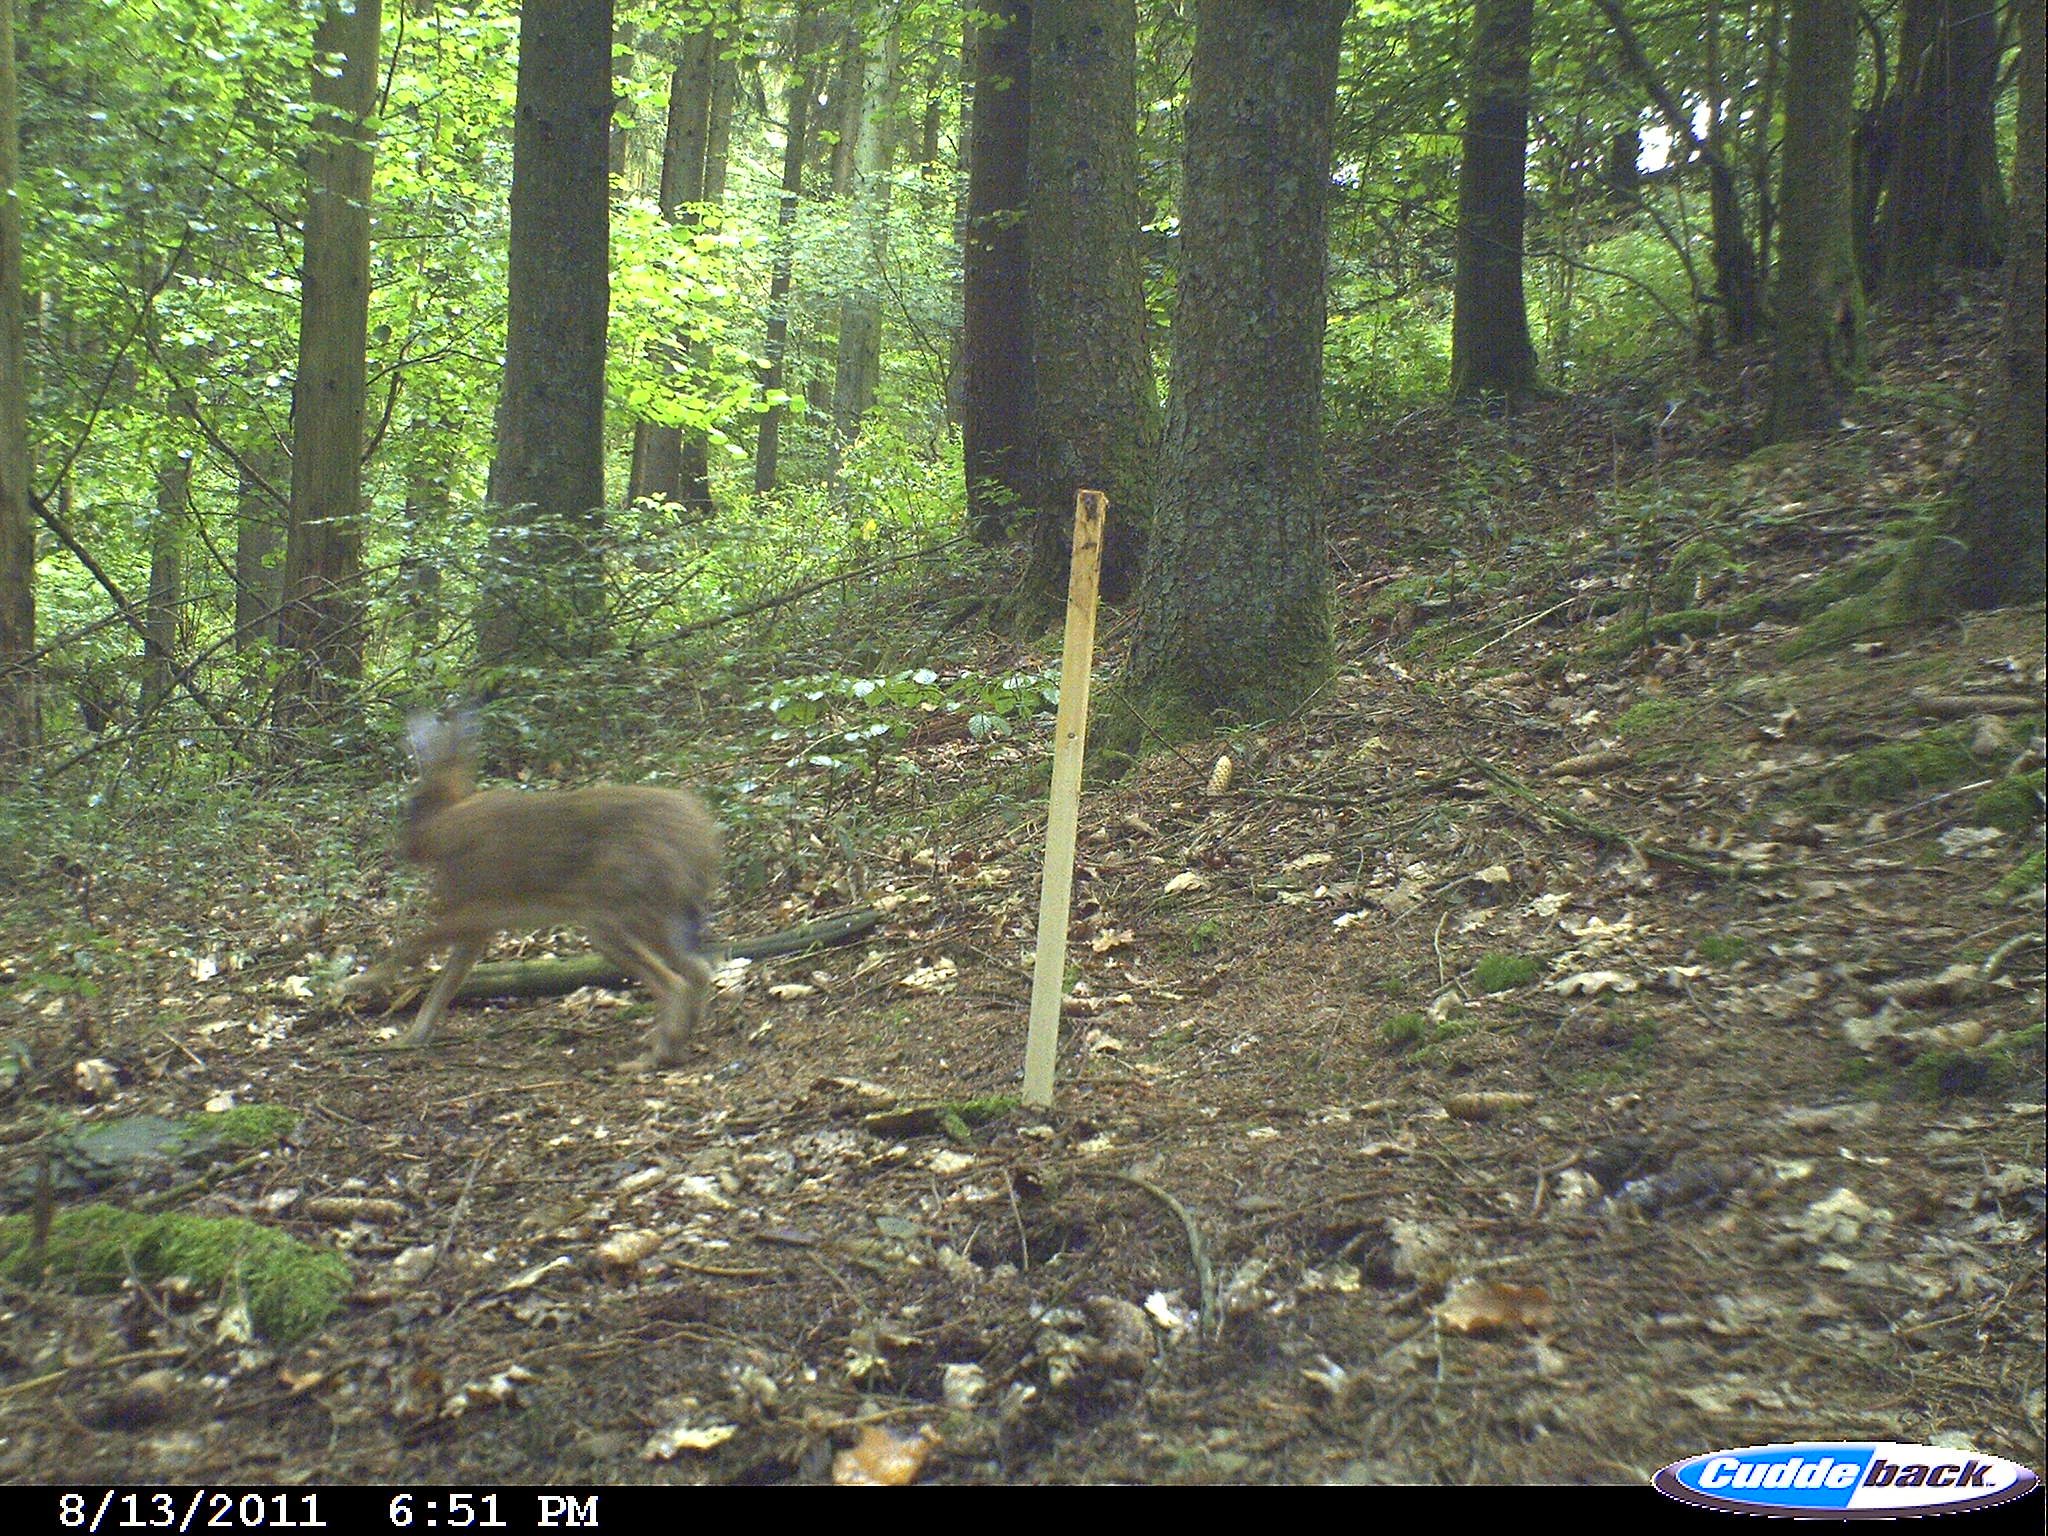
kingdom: Animalia
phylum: Chordata
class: Mammalia
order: Lagomorpha
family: Leporidae
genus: Lepus
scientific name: Lepus europaeus
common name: European hare
